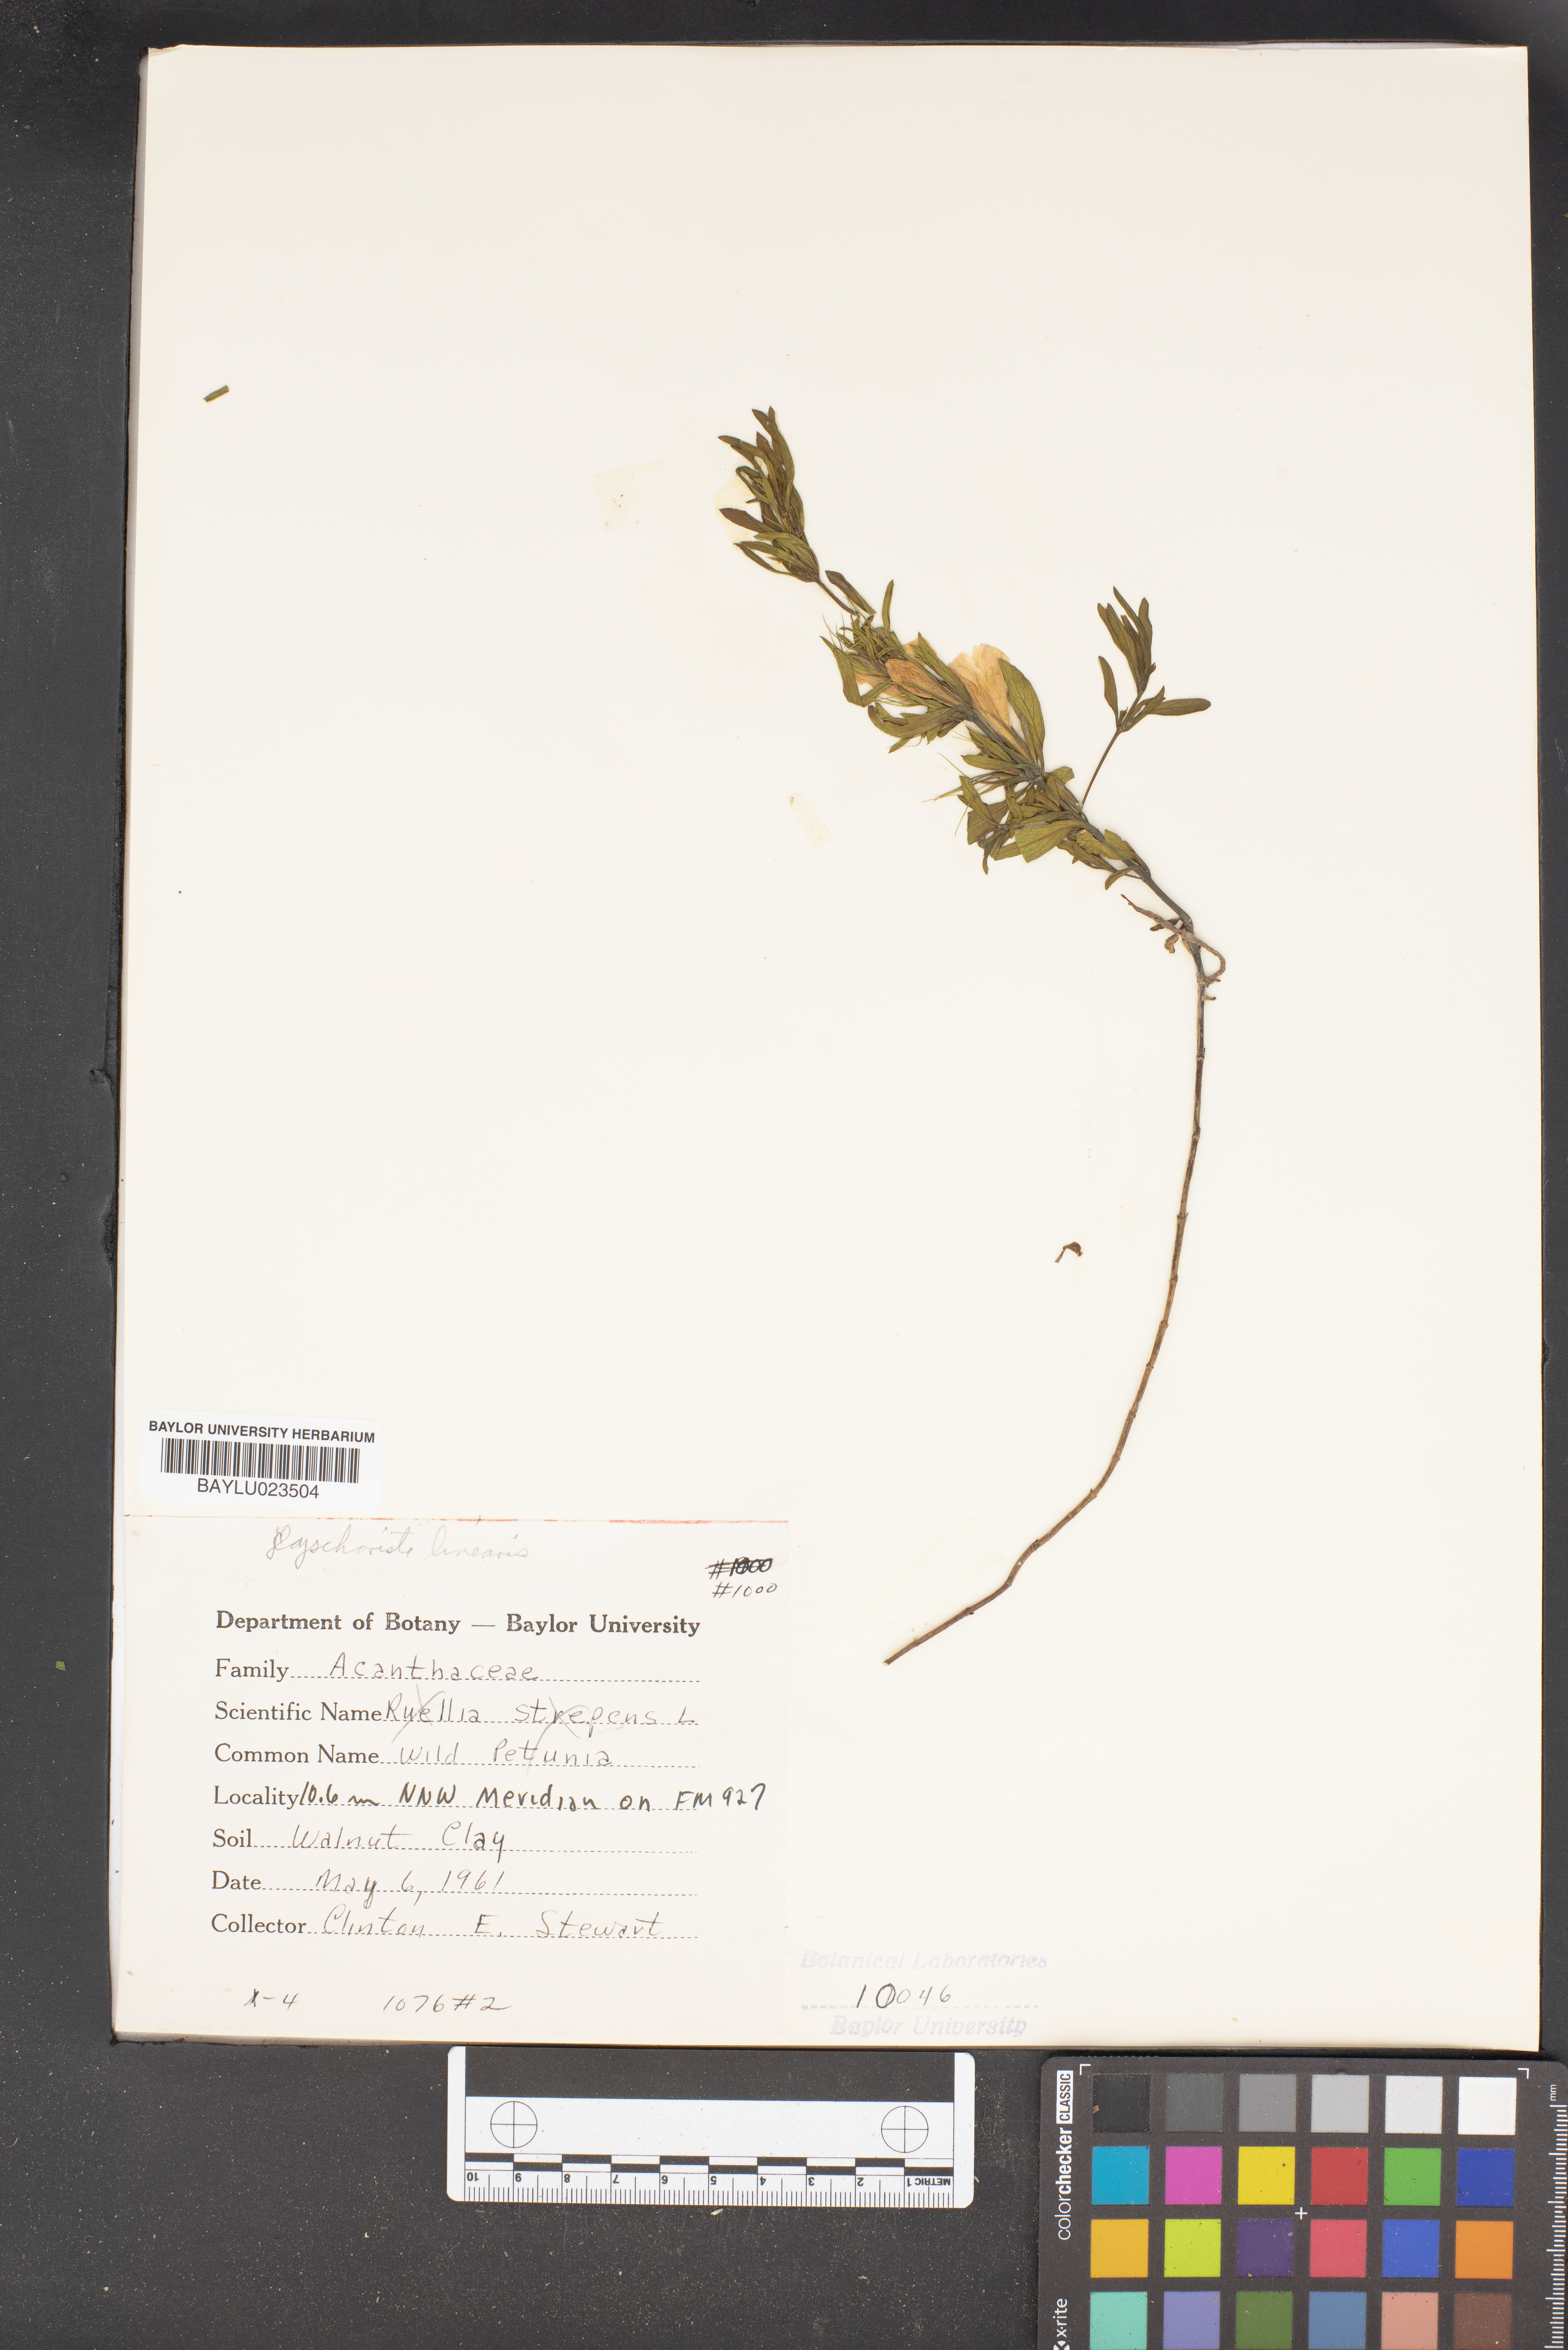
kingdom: Plantae
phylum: Tracheophyta
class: Magnoliopsida
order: Lamiales
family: Acanthaceae
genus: Dyschoriste
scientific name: Dyschoriste linearis
